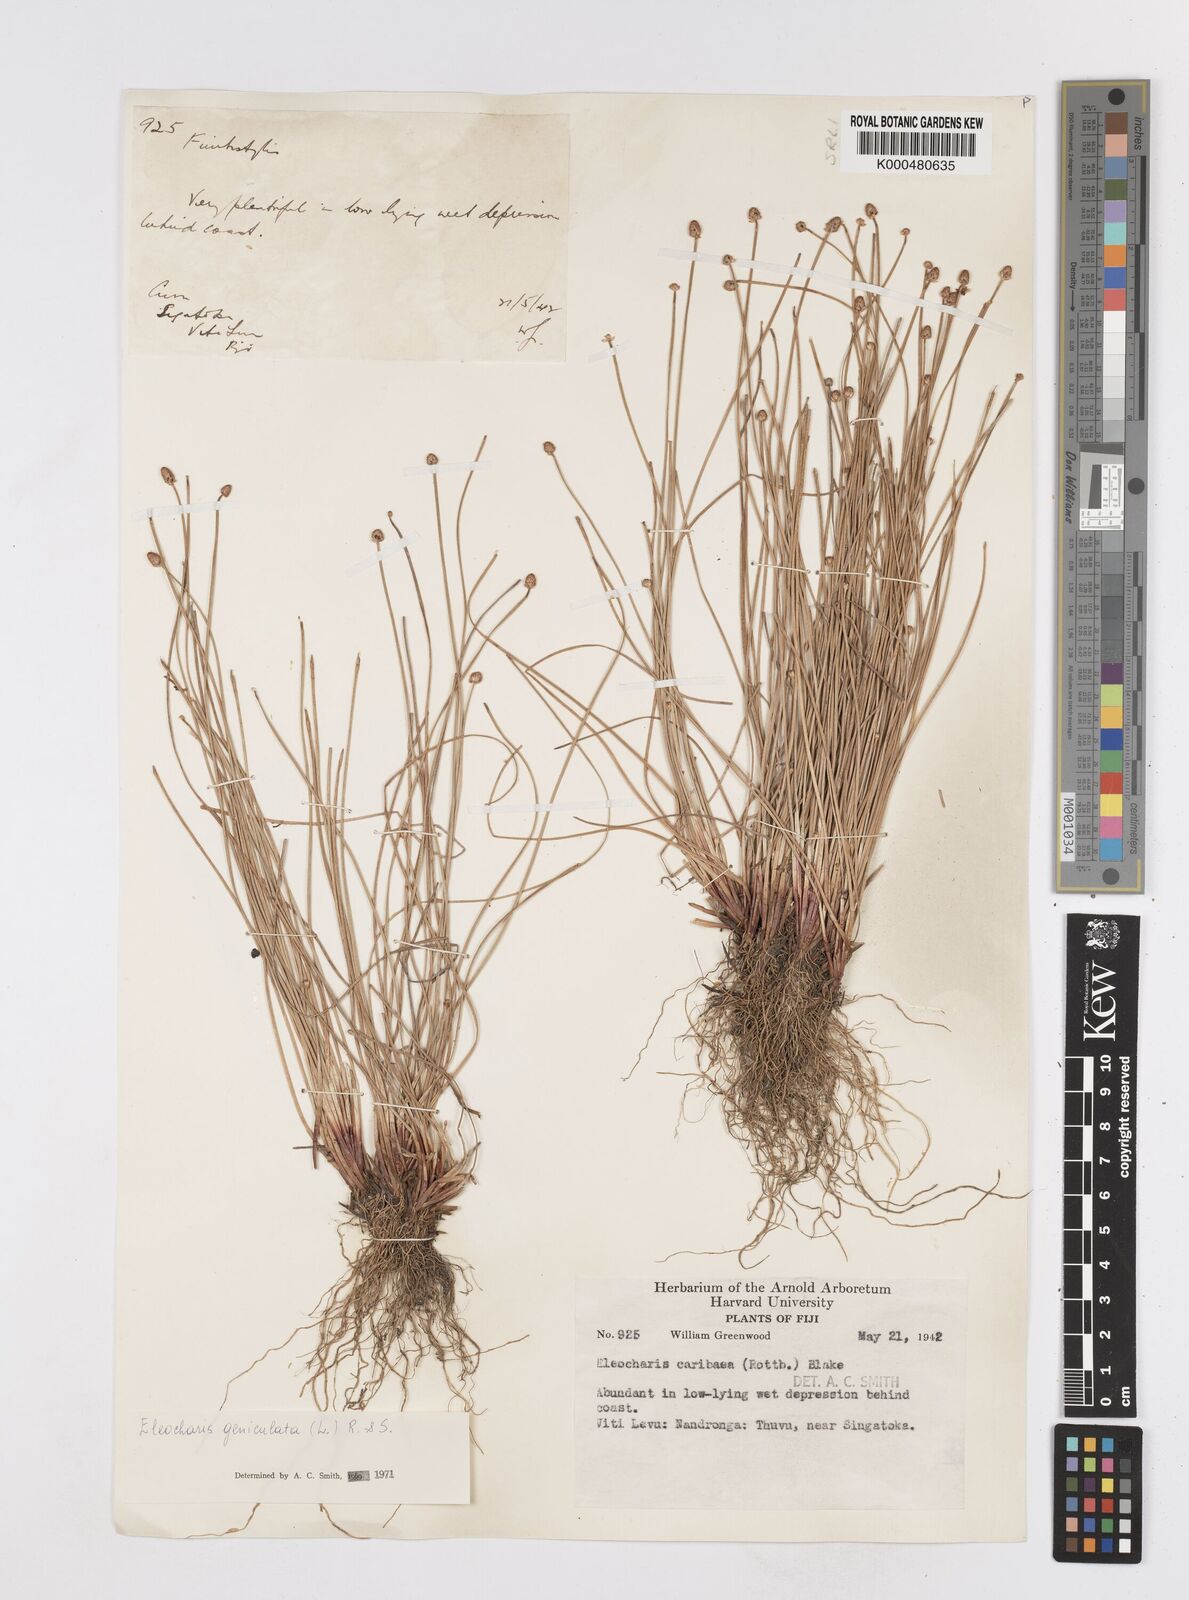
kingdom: Plantae
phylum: Tracheophyta
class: Liliopsida
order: Poales
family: Cyperaceae
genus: Eleocharis
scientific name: Eleocharis geniculata
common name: Canada spikesedge
